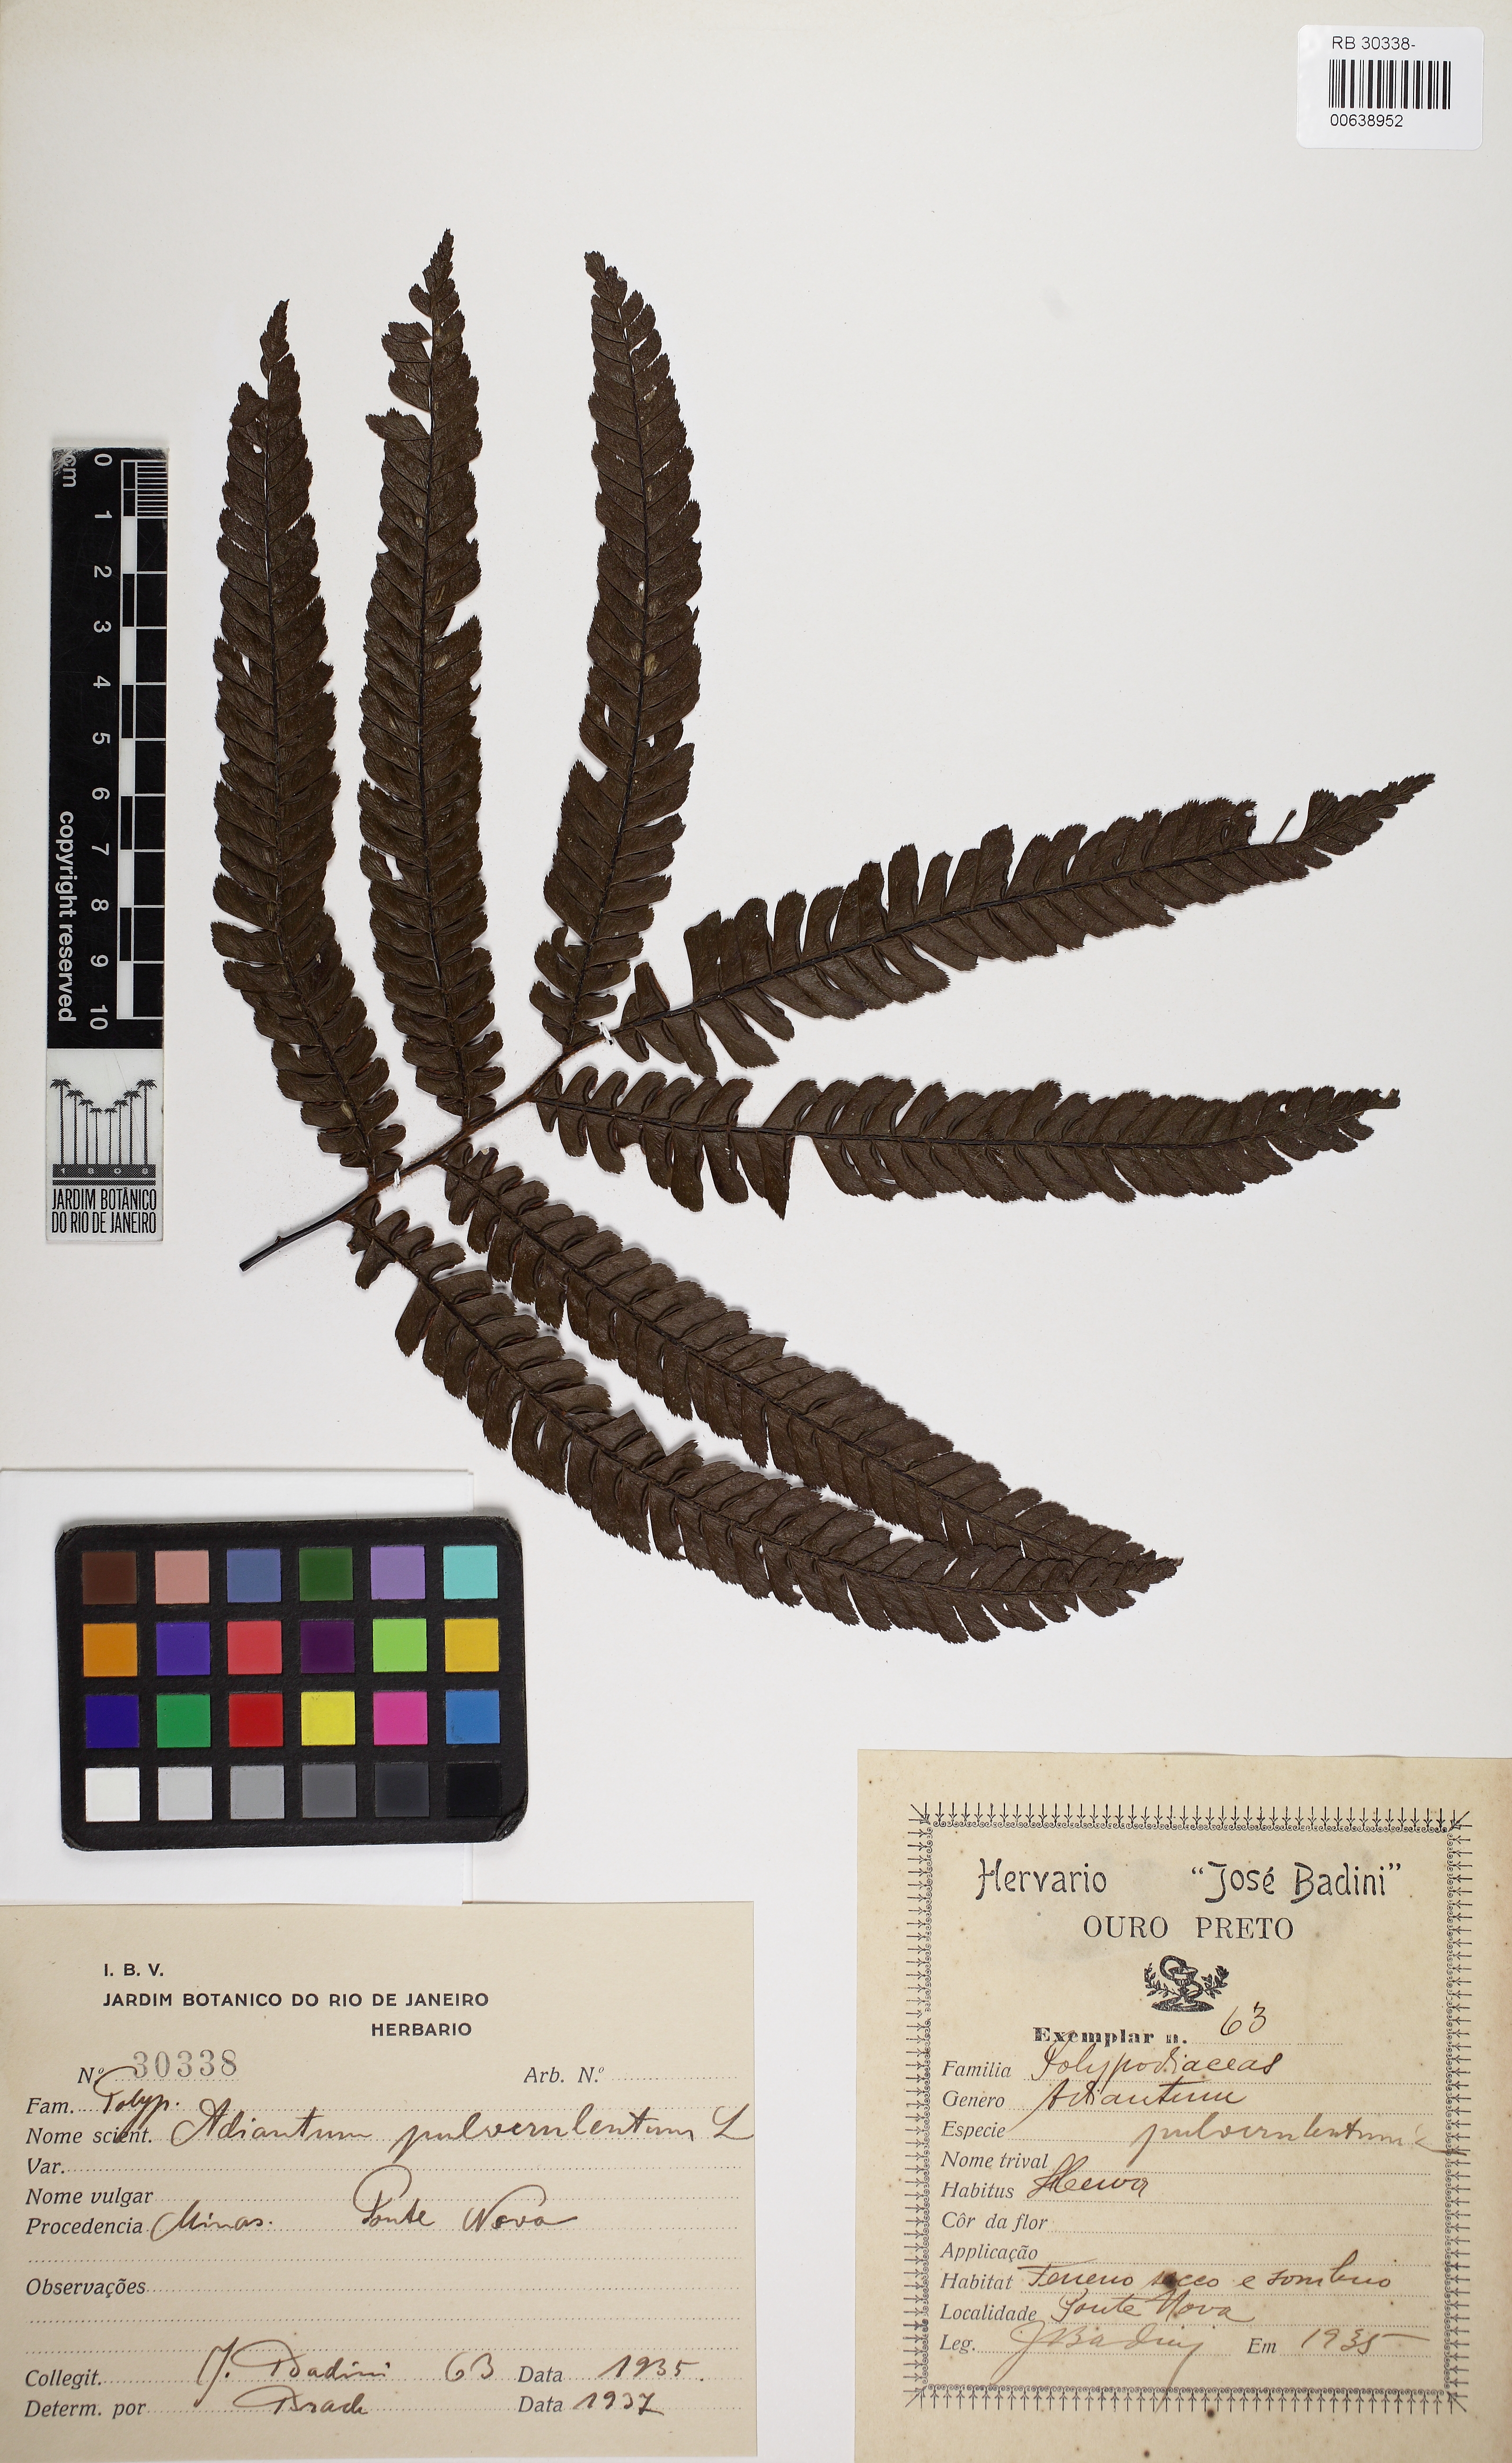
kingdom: Plantae
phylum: Tracheophyta
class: Polypodiopsida
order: Polypodiales
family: Pteridaceae
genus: Adiantum
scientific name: Adiantum pulverulentum
